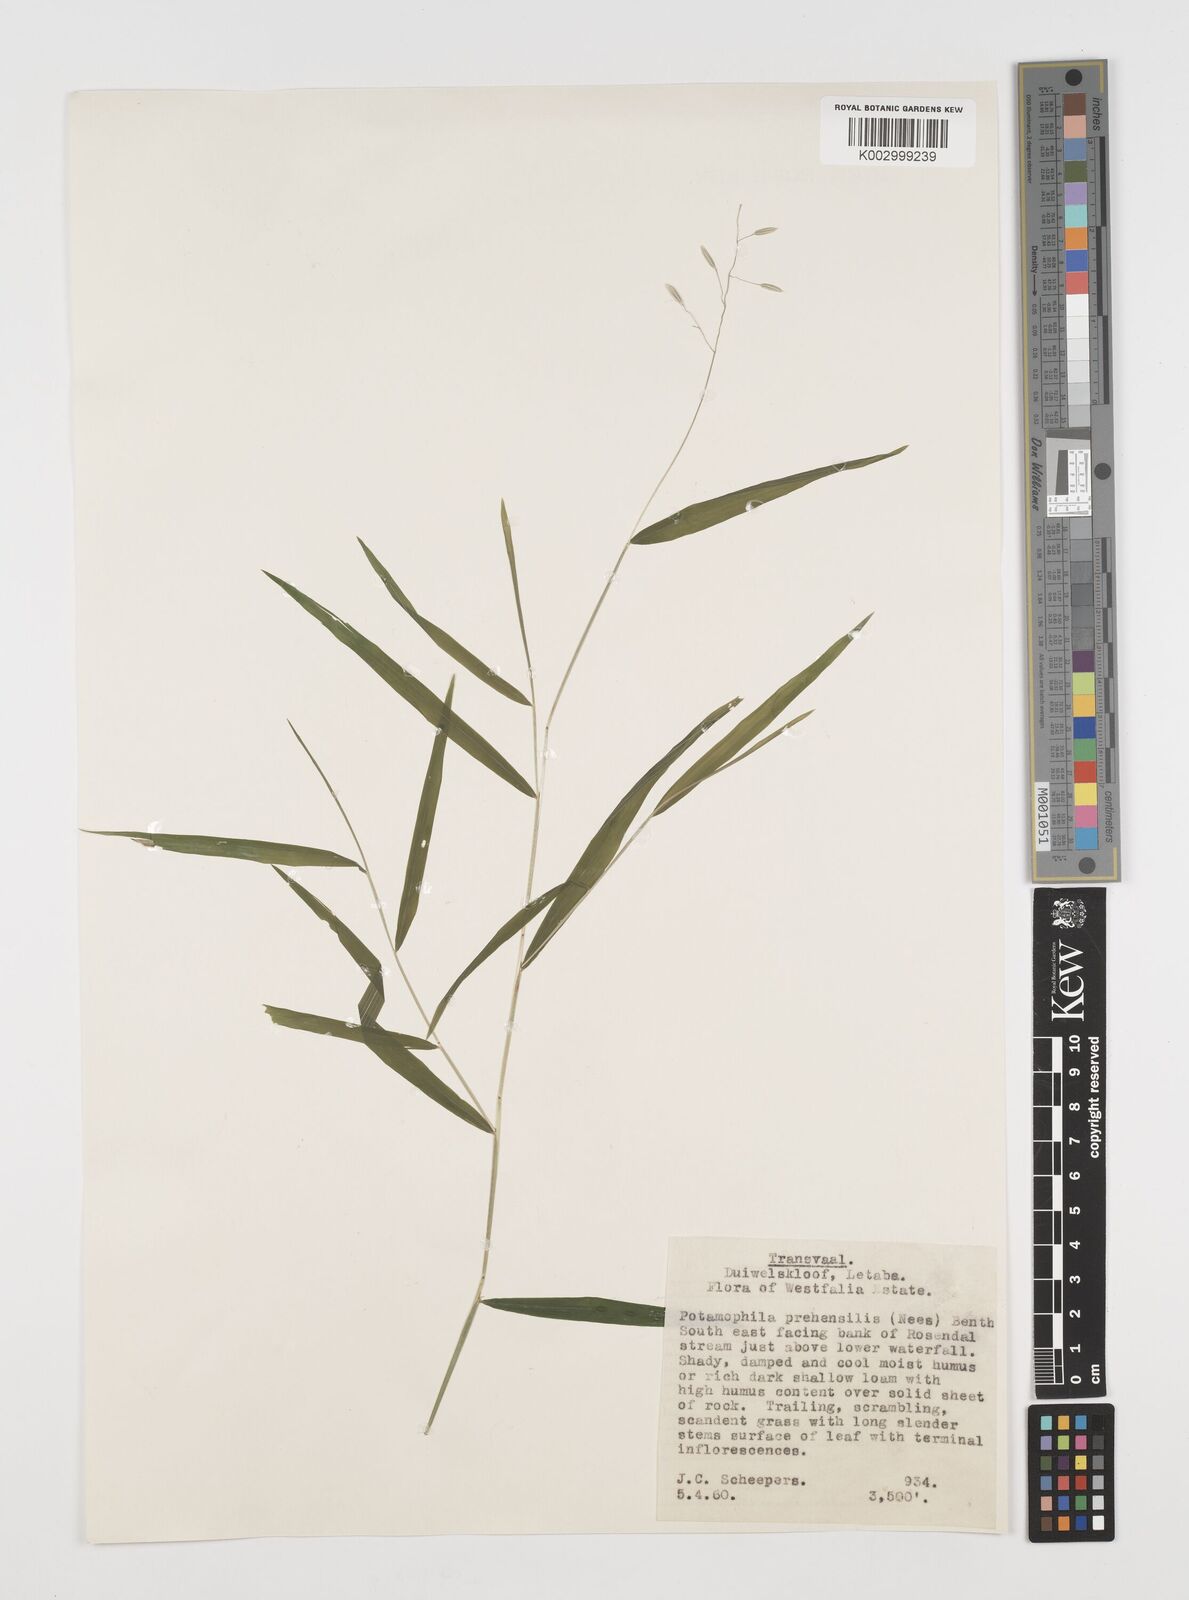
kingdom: Plantae
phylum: Tracheophyta
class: Liliopsida
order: Poales
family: Poaceae
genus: Prosphytochloa
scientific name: Prosphytochloa prehensilis
